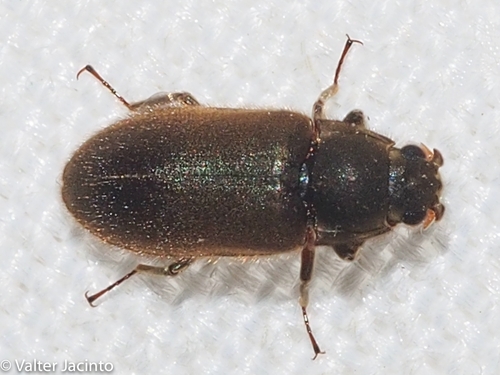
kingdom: Animalia
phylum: Arthropoda
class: Insecta
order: Coleoptera
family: Dryopidae
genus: Dryops
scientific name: Dryops
